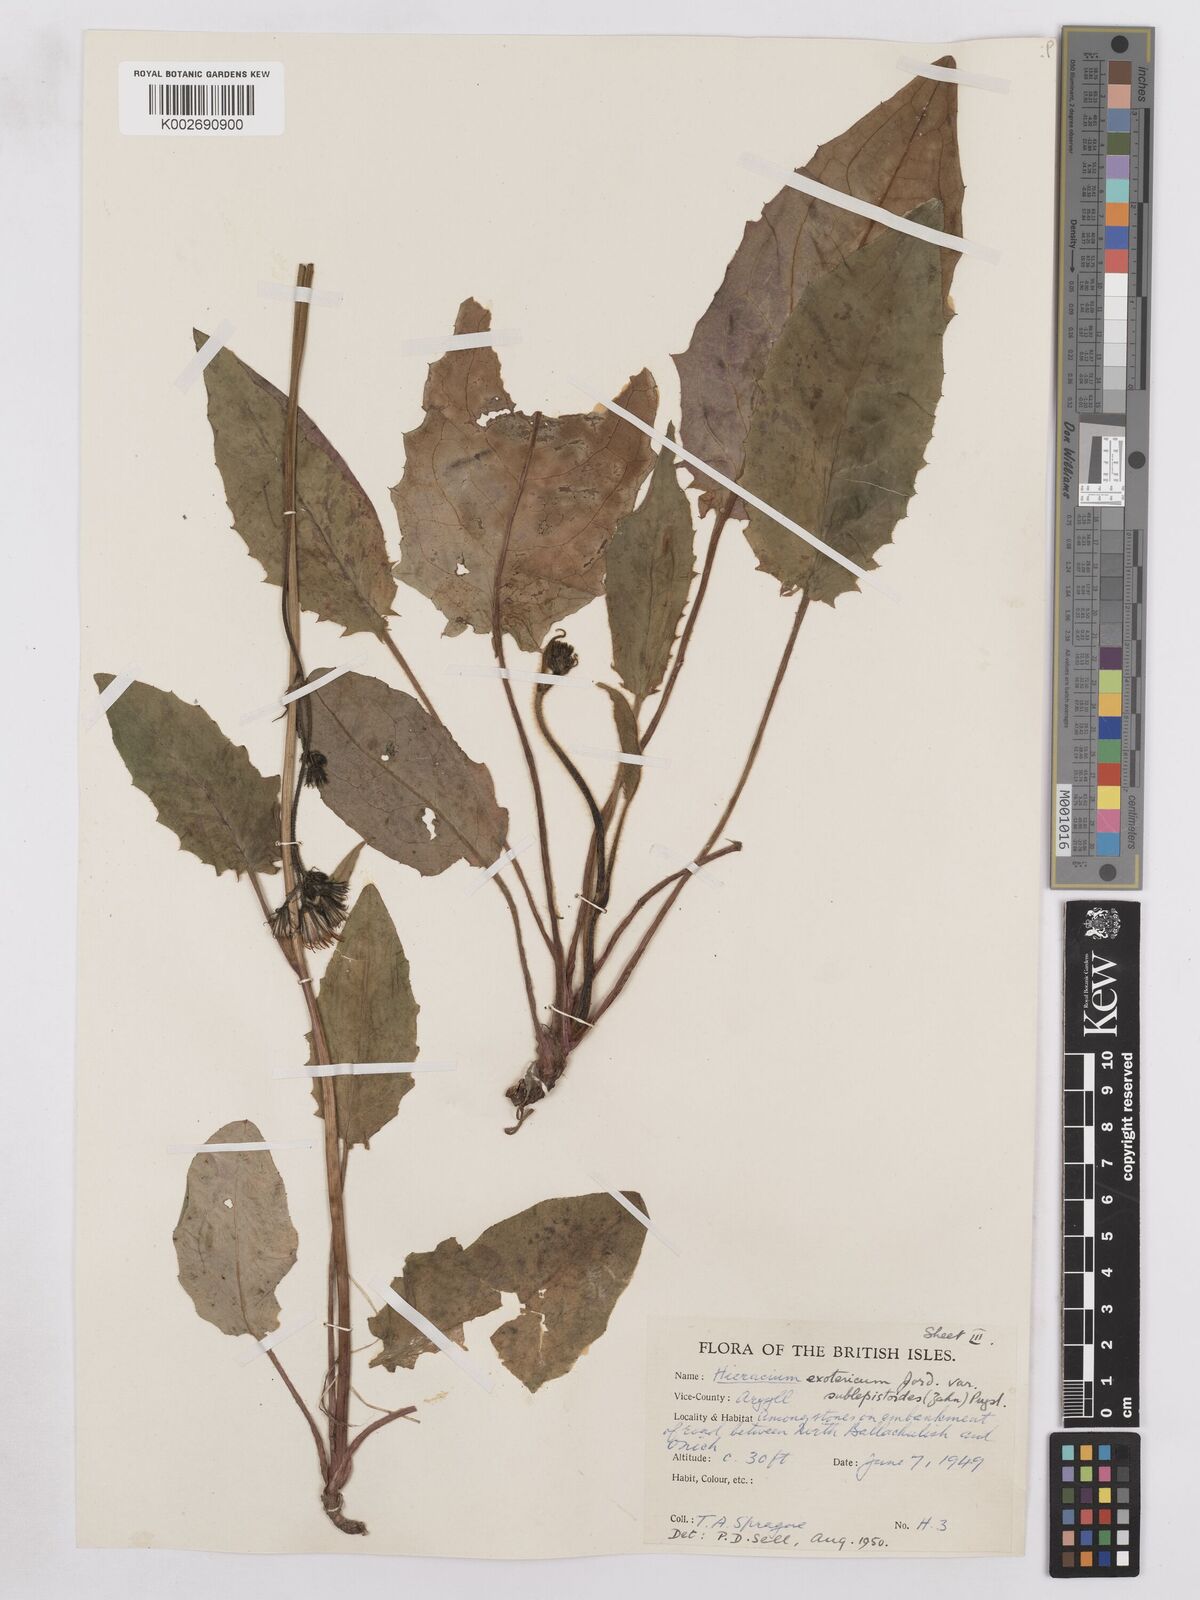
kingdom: Plantae
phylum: Tracheophyta
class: Magnoliopsida
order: Asterales
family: Asteraceae
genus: Hieracium
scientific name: Hieracium murorum
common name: Wall hawkweed
